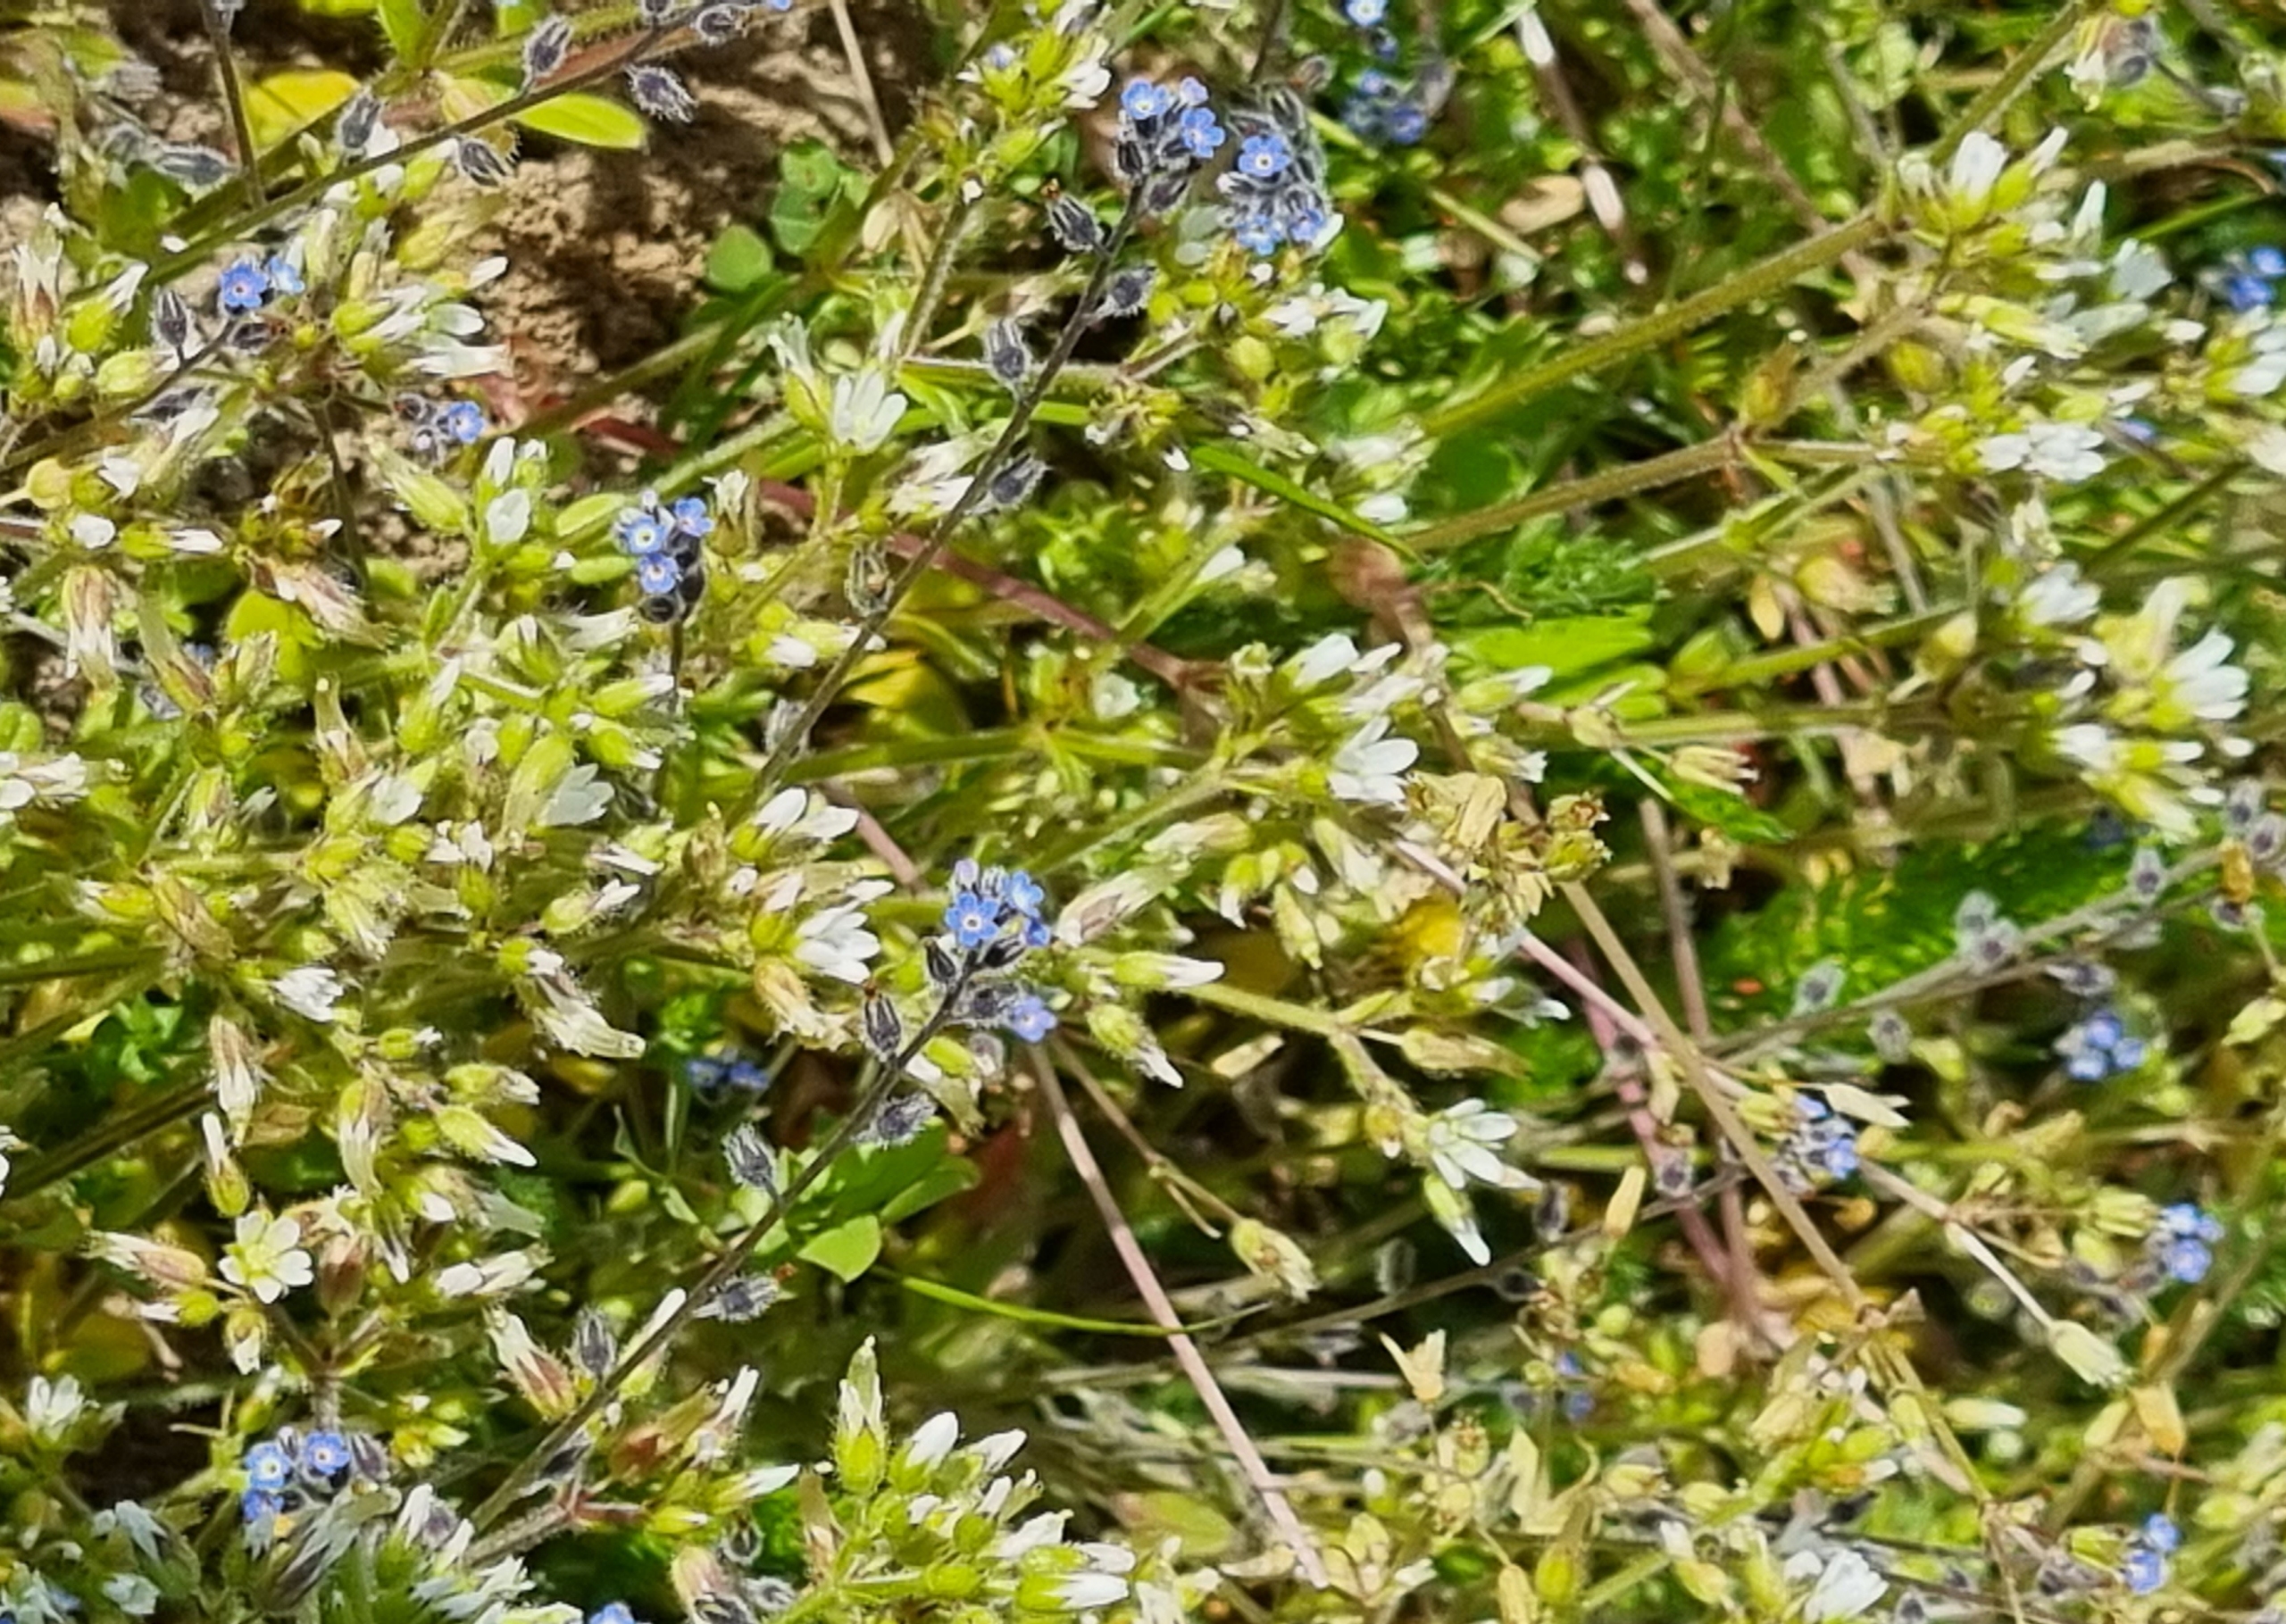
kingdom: Plantae
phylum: Tracheophyta
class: Magnoliopsida
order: Boraginales
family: Boraginaceae
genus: Myosotis
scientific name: Myosotis ramosissima
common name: Bakke-forglemmigej
